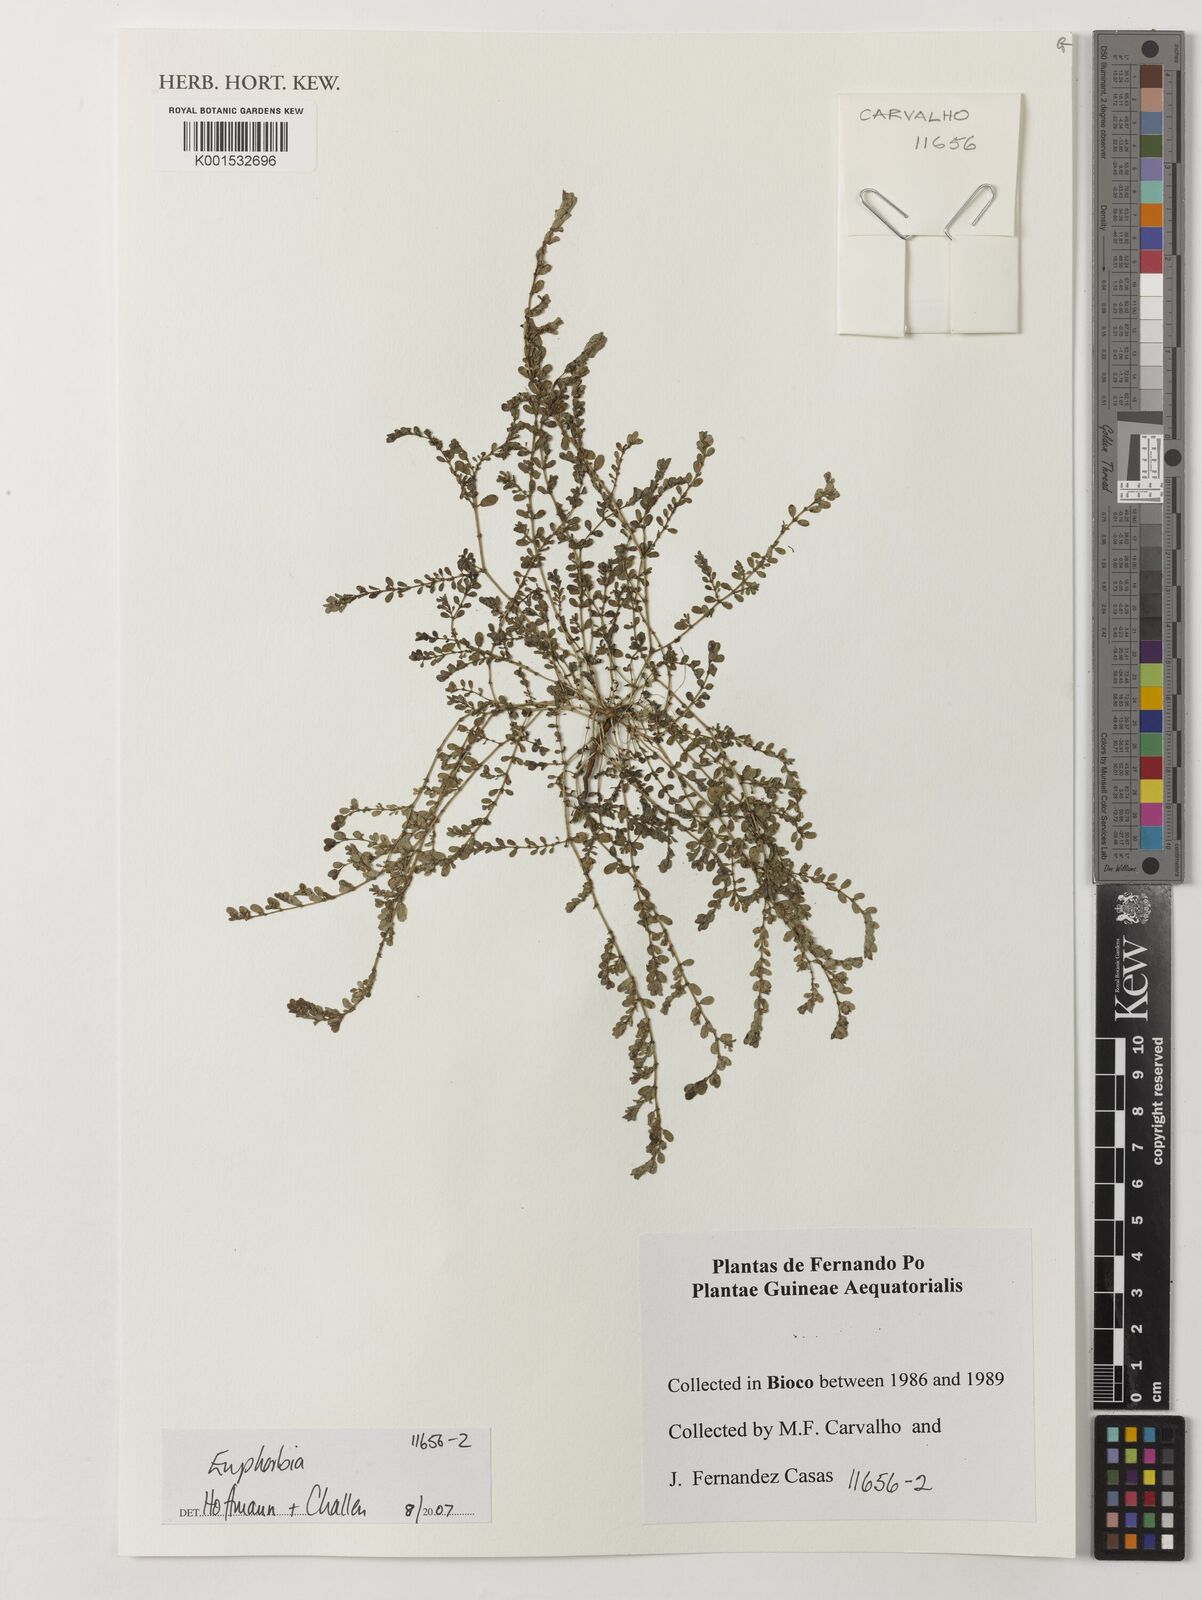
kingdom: Plantae
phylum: Tracheophyta
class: Magnoliopsida
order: Malpighiales
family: Euphorbiaceae
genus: Euphorbia
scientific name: Euphorbia
